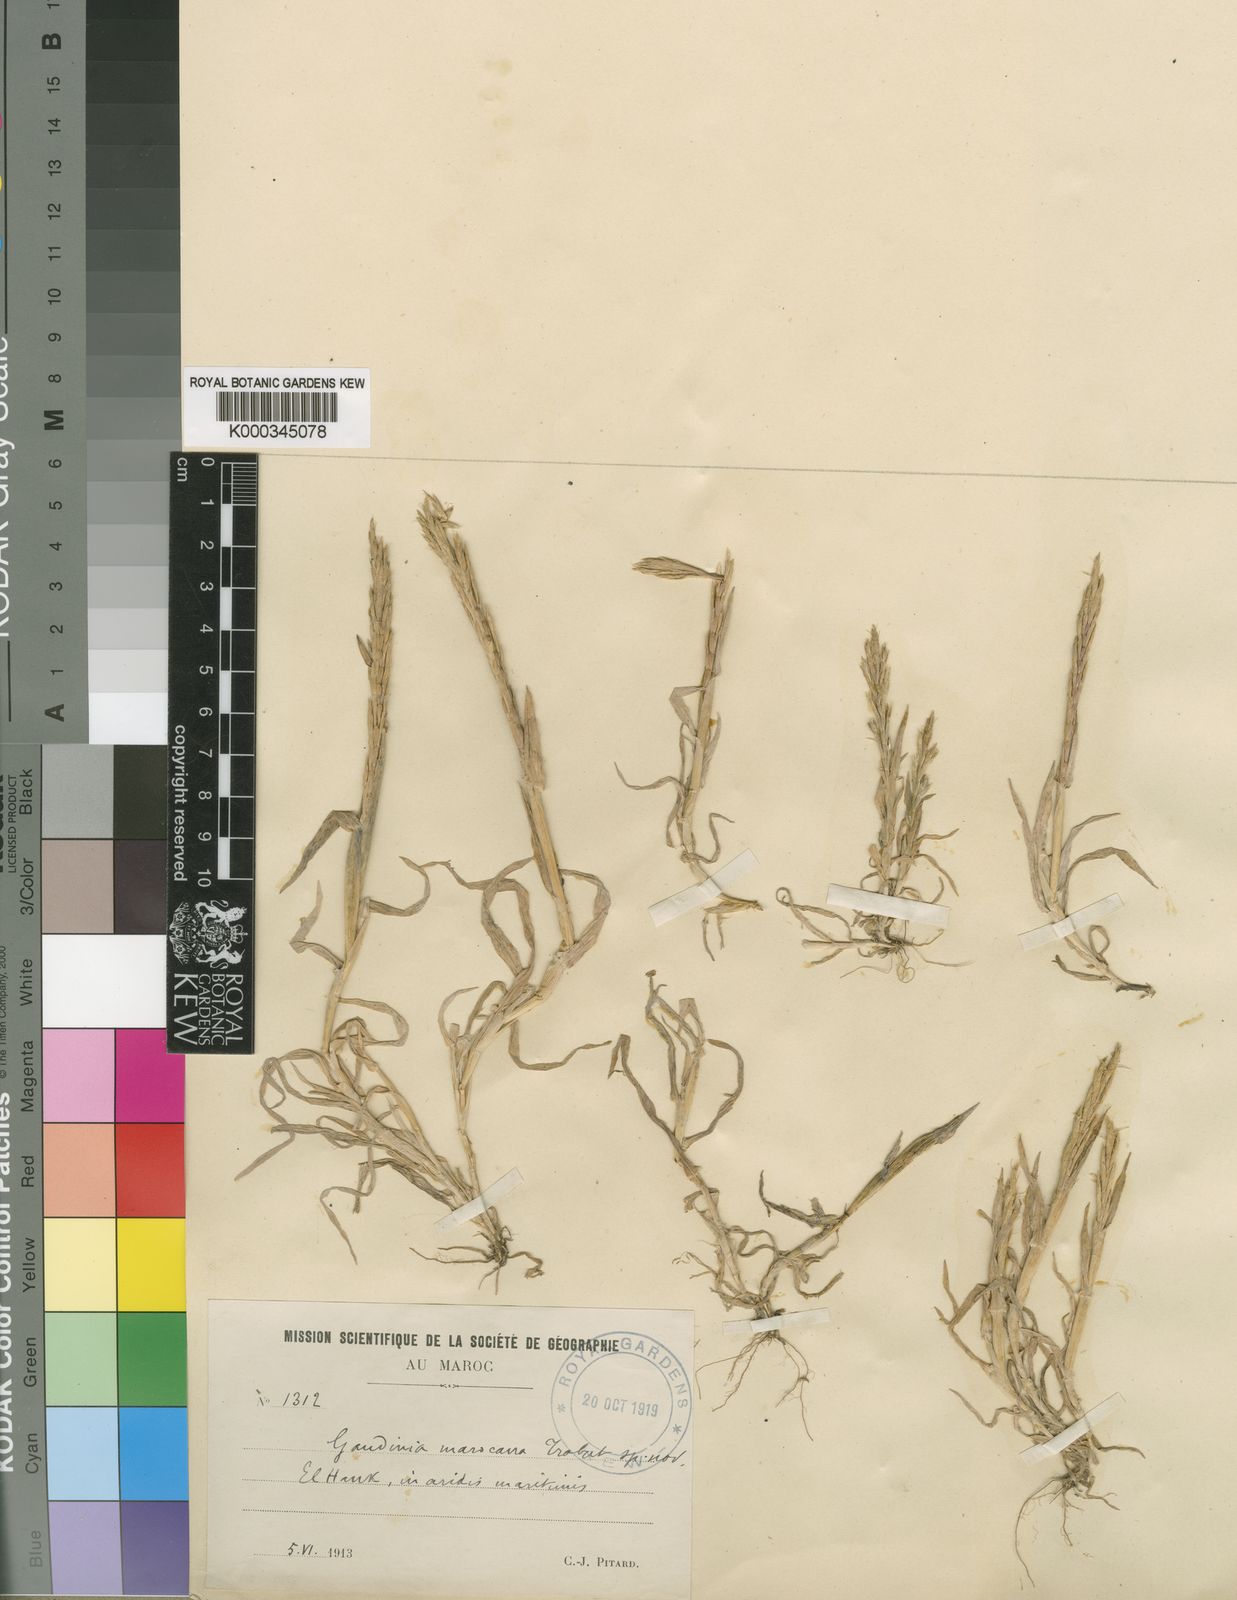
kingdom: Plantae
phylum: Tracheophyta
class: Liliopsida
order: Poales
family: Poaceae
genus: Gaudinia
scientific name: Gaudinia maroccana
